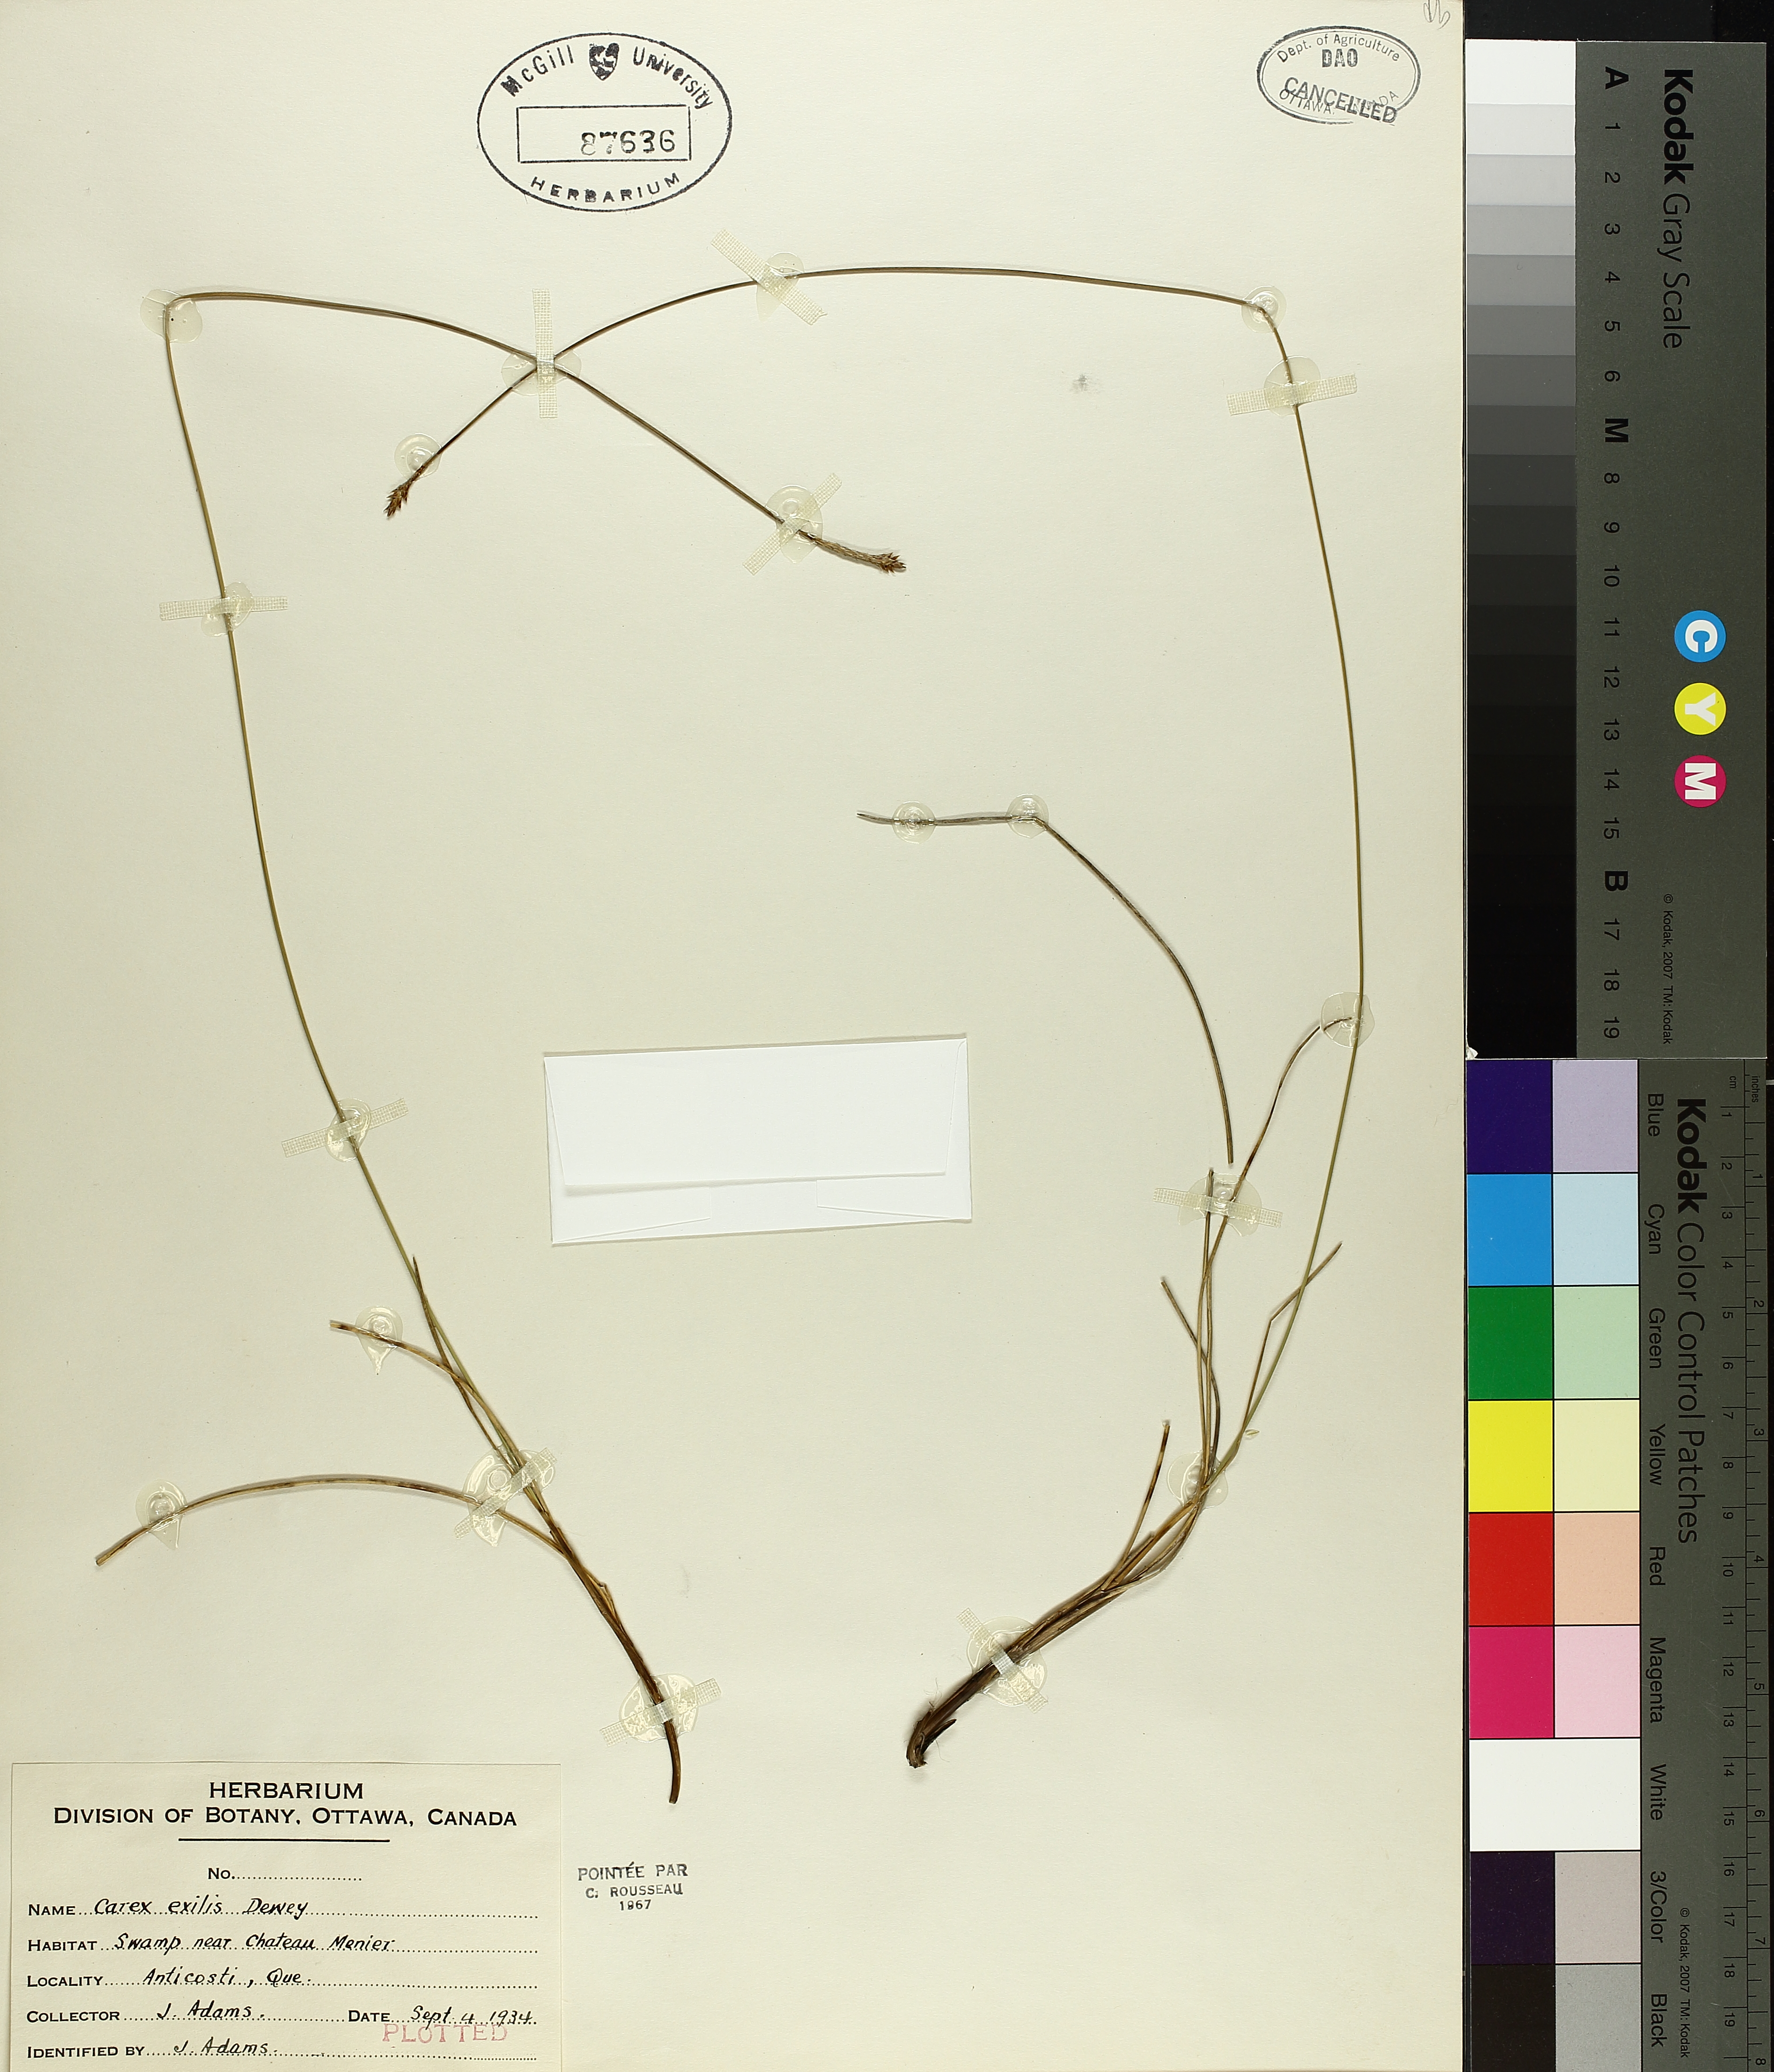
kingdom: Plantae
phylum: Tracheophyta
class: Liliopsida
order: Poales
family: Cyperaceae
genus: Carex
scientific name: Carex exilis
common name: Coastal sedge
